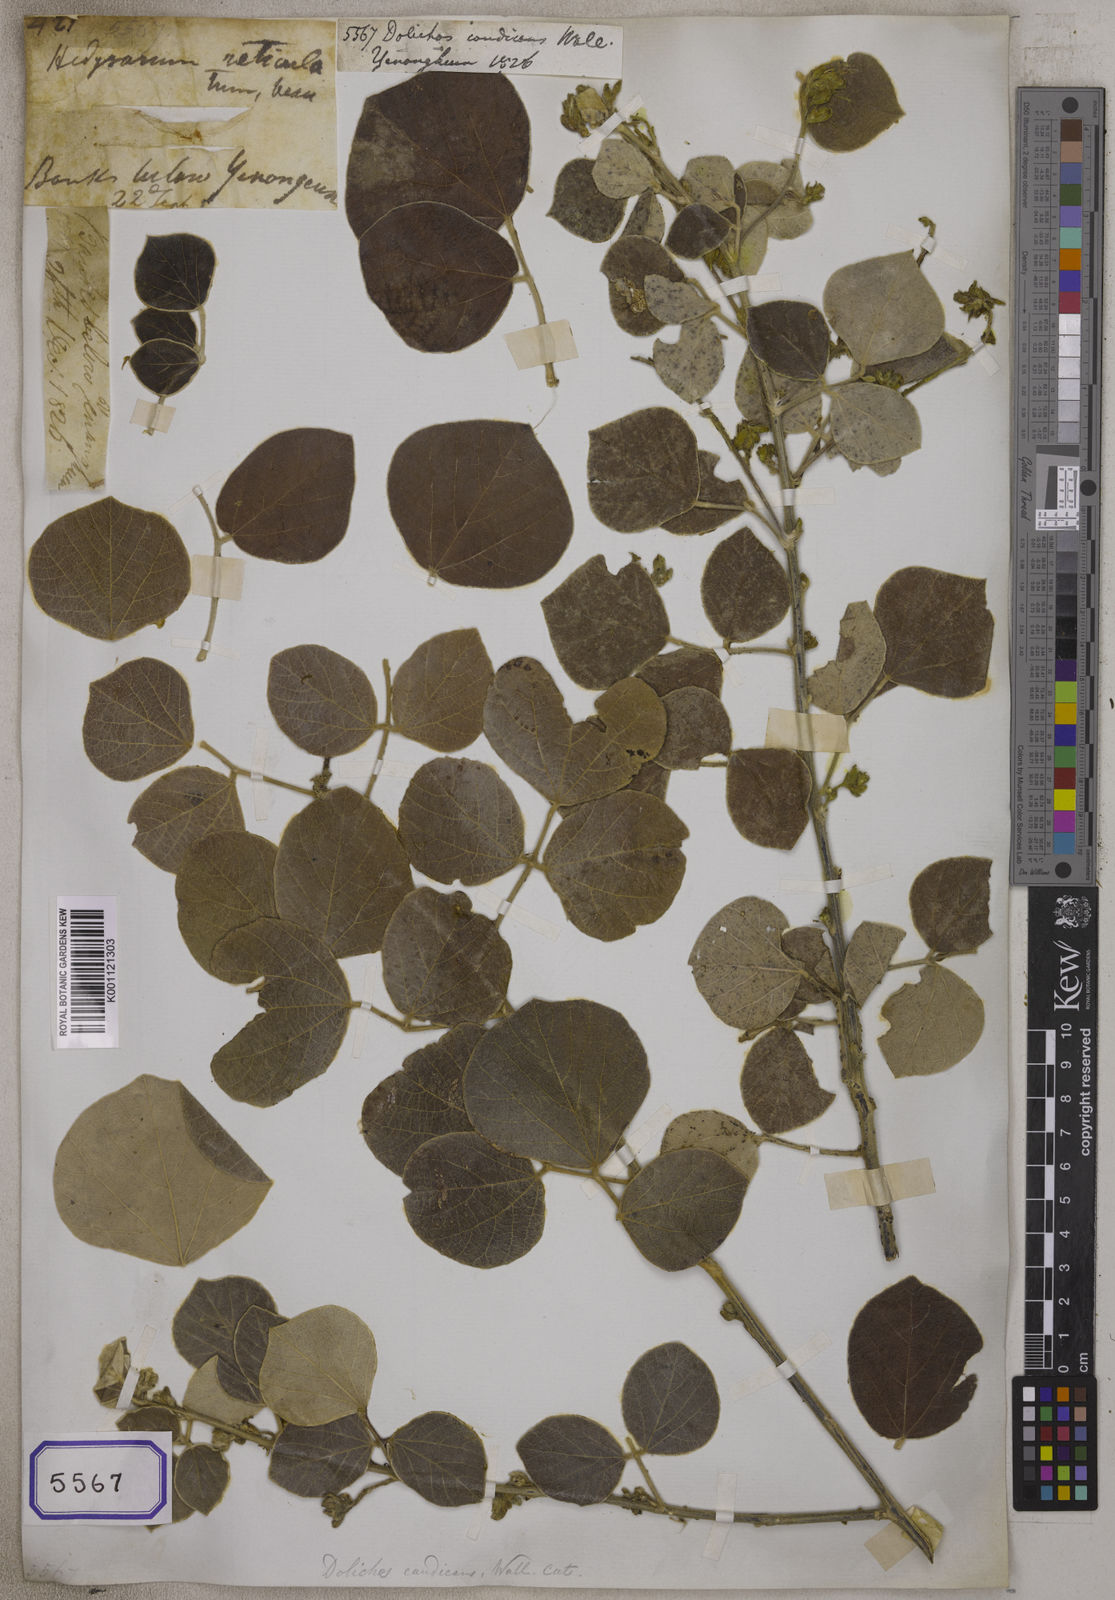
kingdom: Plantae
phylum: Tracheophyta
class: Magnoliopsida
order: Fabales
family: Fabaceae
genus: Dolichos
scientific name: Dolichos
